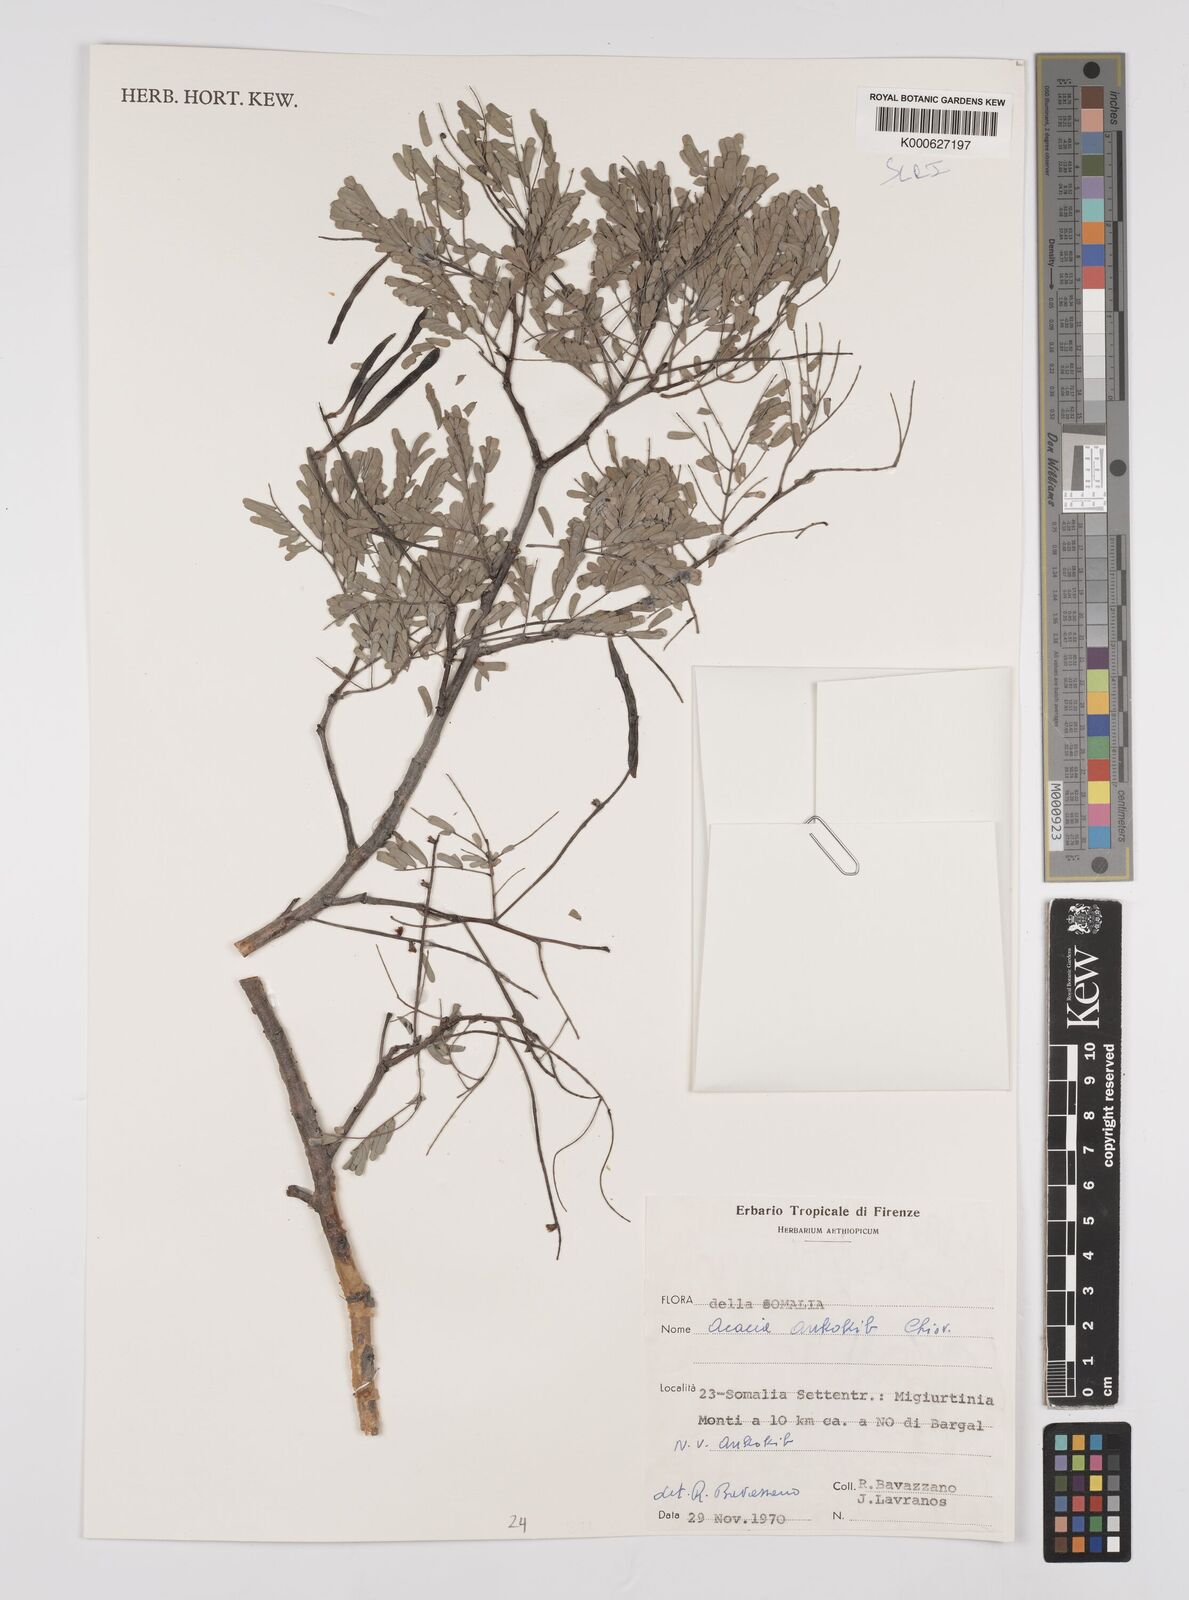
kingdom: Plantae
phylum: Tracheophyta
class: Magnoliopsida
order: Fabales
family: Fabaceae
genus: Senegalia
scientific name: Senegalia ankokib
